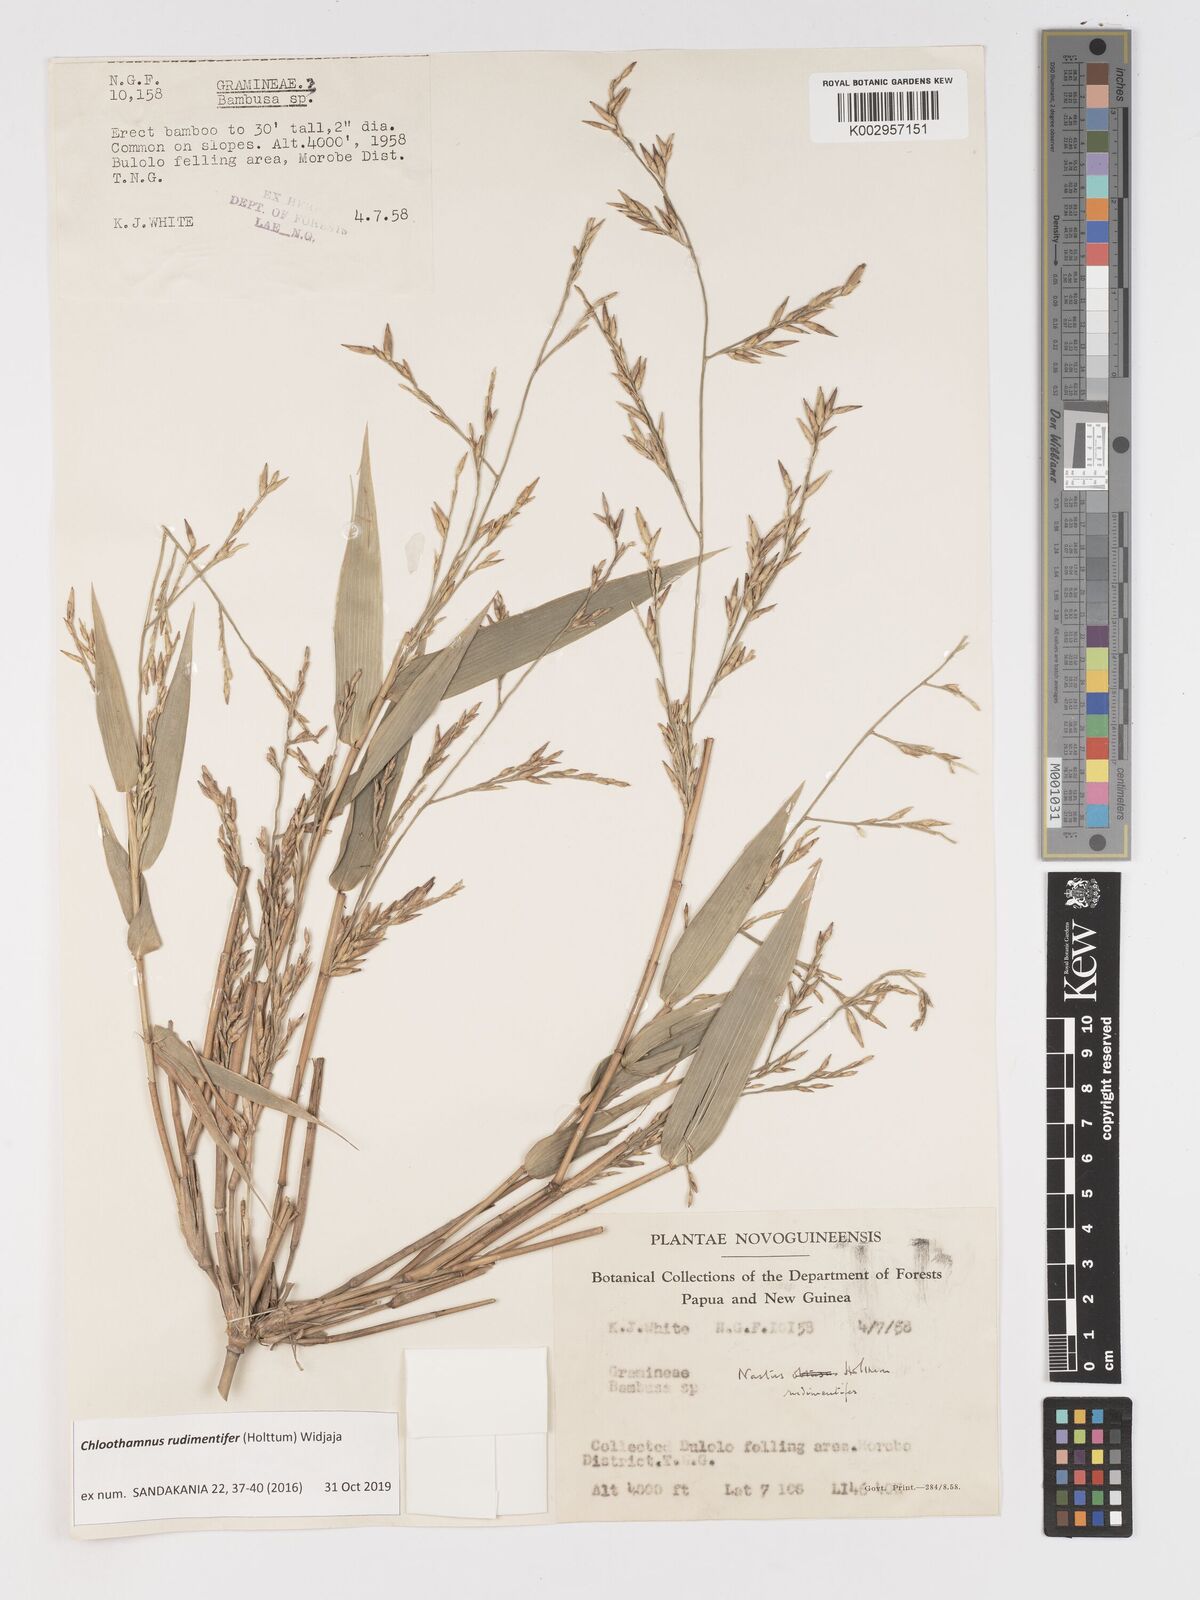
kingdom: Plantae
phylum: Tracheophyta
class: Liliopsida
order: Poales
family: Poaceae
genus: Chloothamnus
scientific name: Chloothamnus rudimentifer
